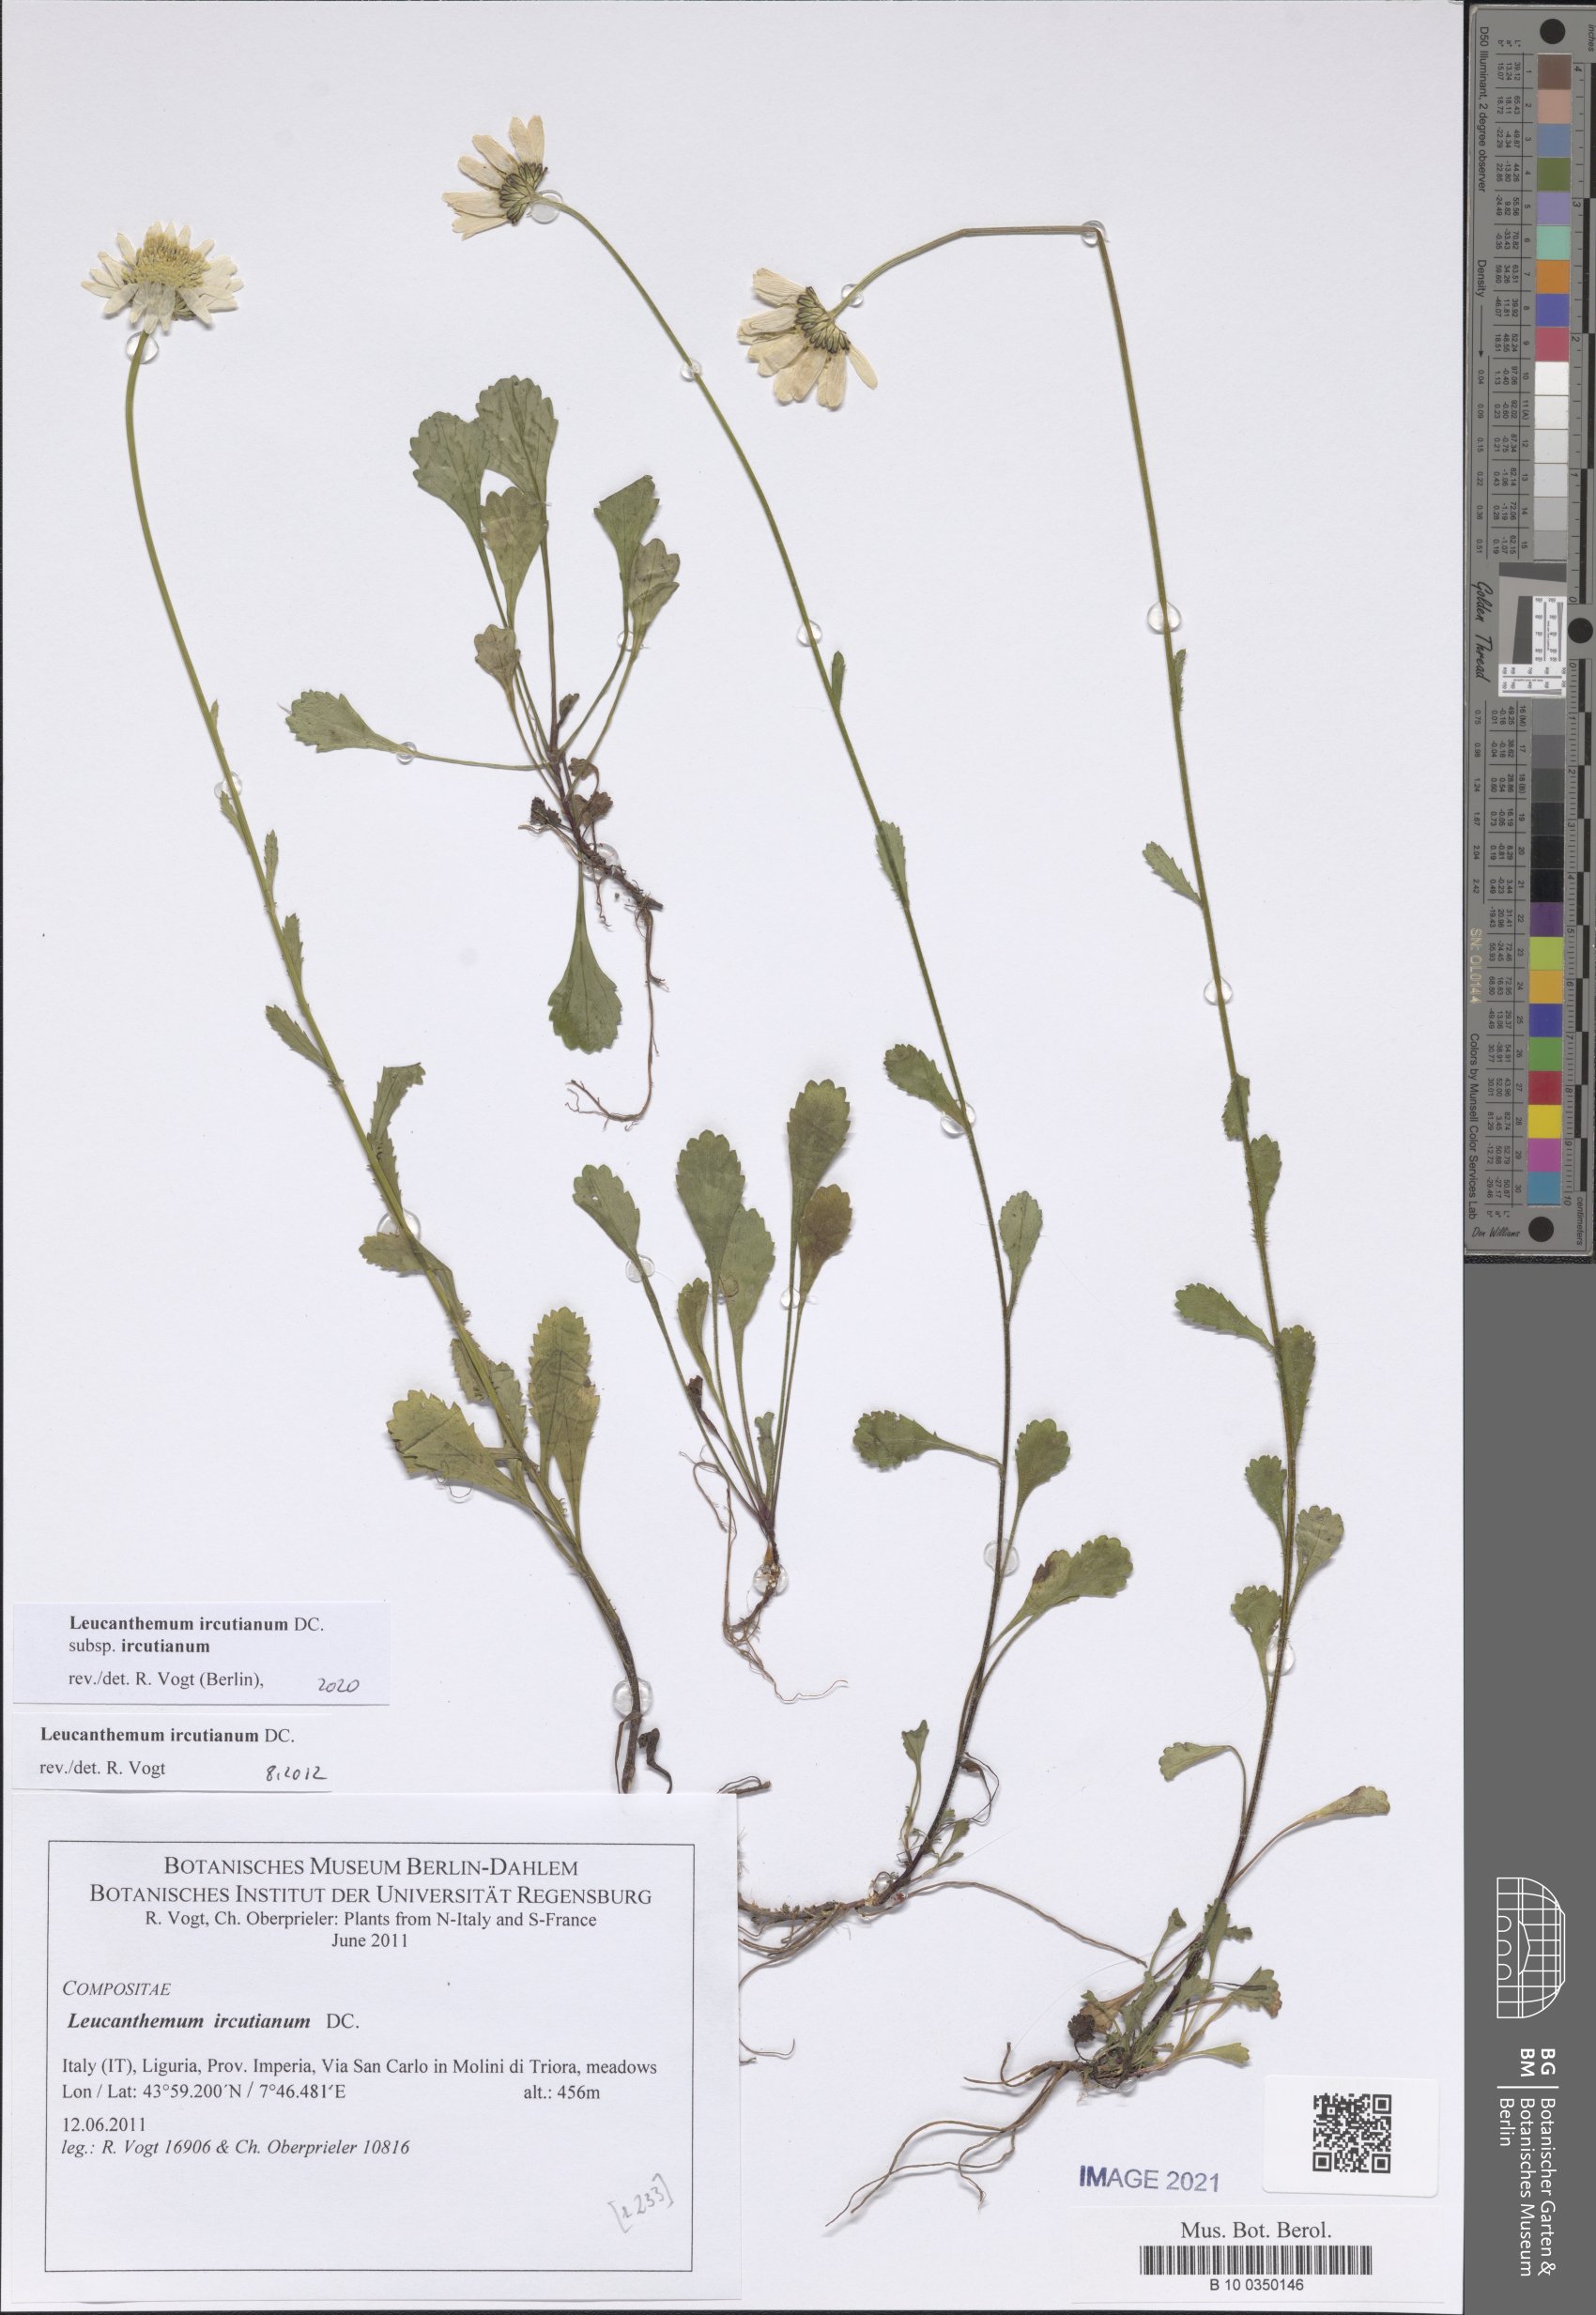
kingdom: Plantae
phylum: Tracheophyta
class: Magnoliopsida
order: Asterales
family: Asteraceae
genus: Leucanthemum
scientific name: Leucanthemum ircutianum
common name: Daisy
